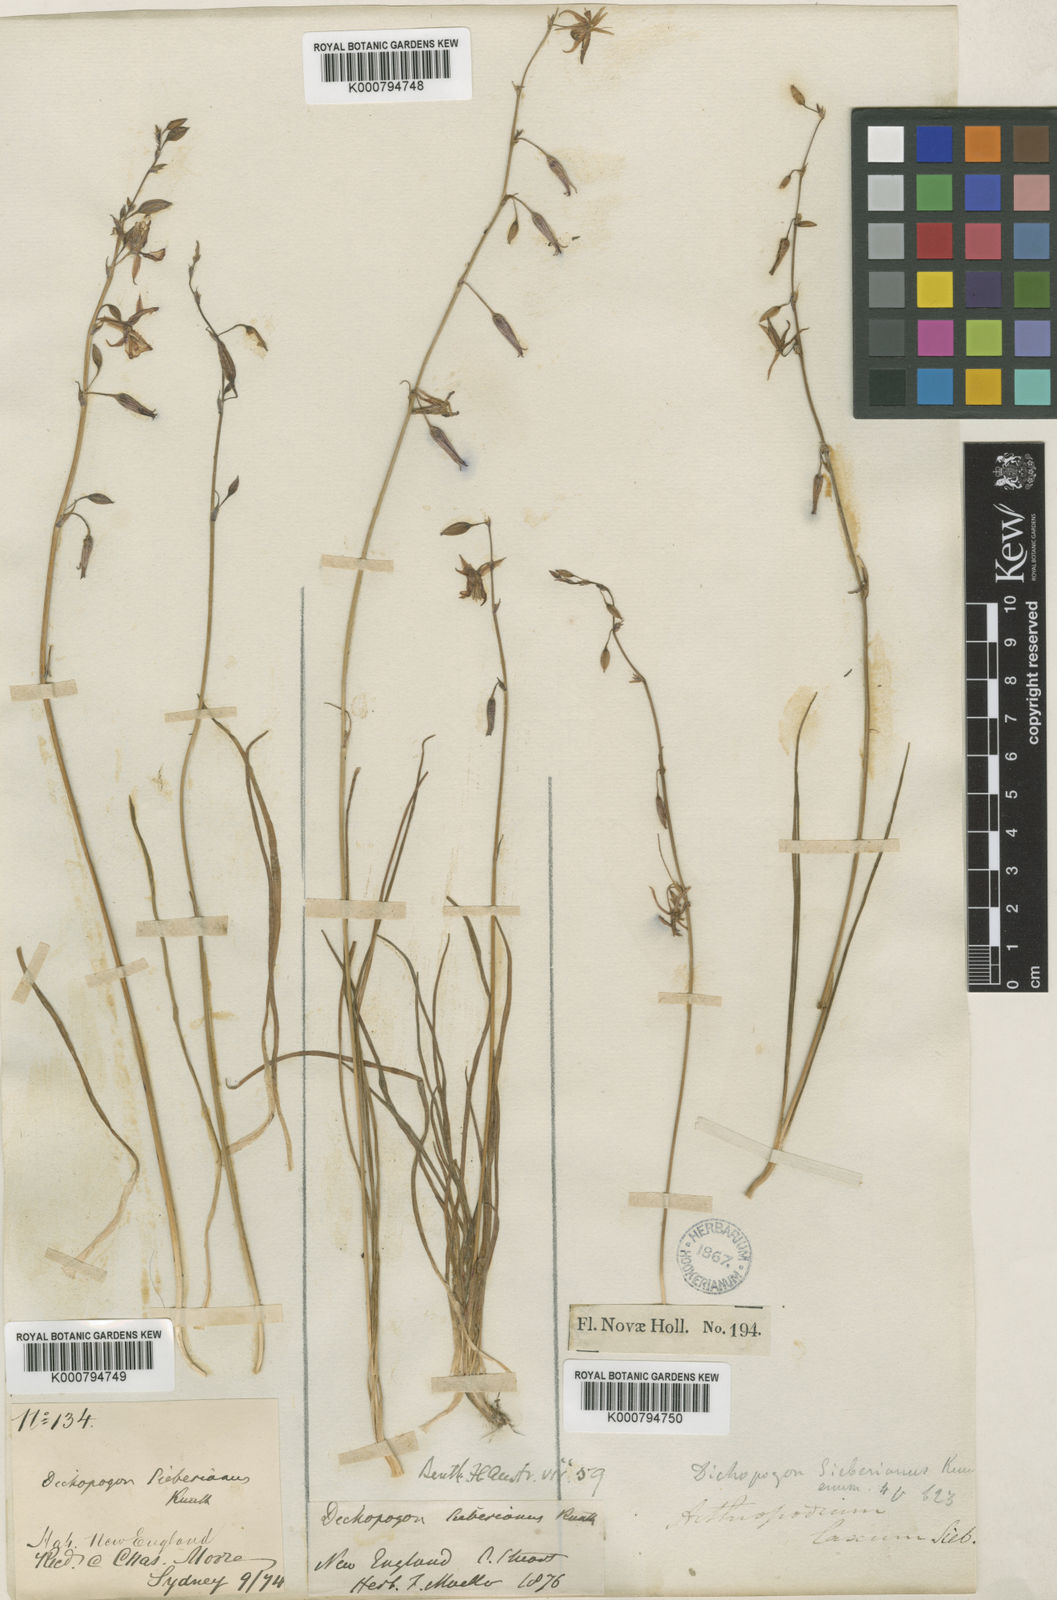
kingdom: Plantae
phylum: Tracheophyta
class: Liliopsida
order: Asparagales
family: Asparagaceae
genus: Dichopogon
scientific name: Dichopogon fimbriatus
